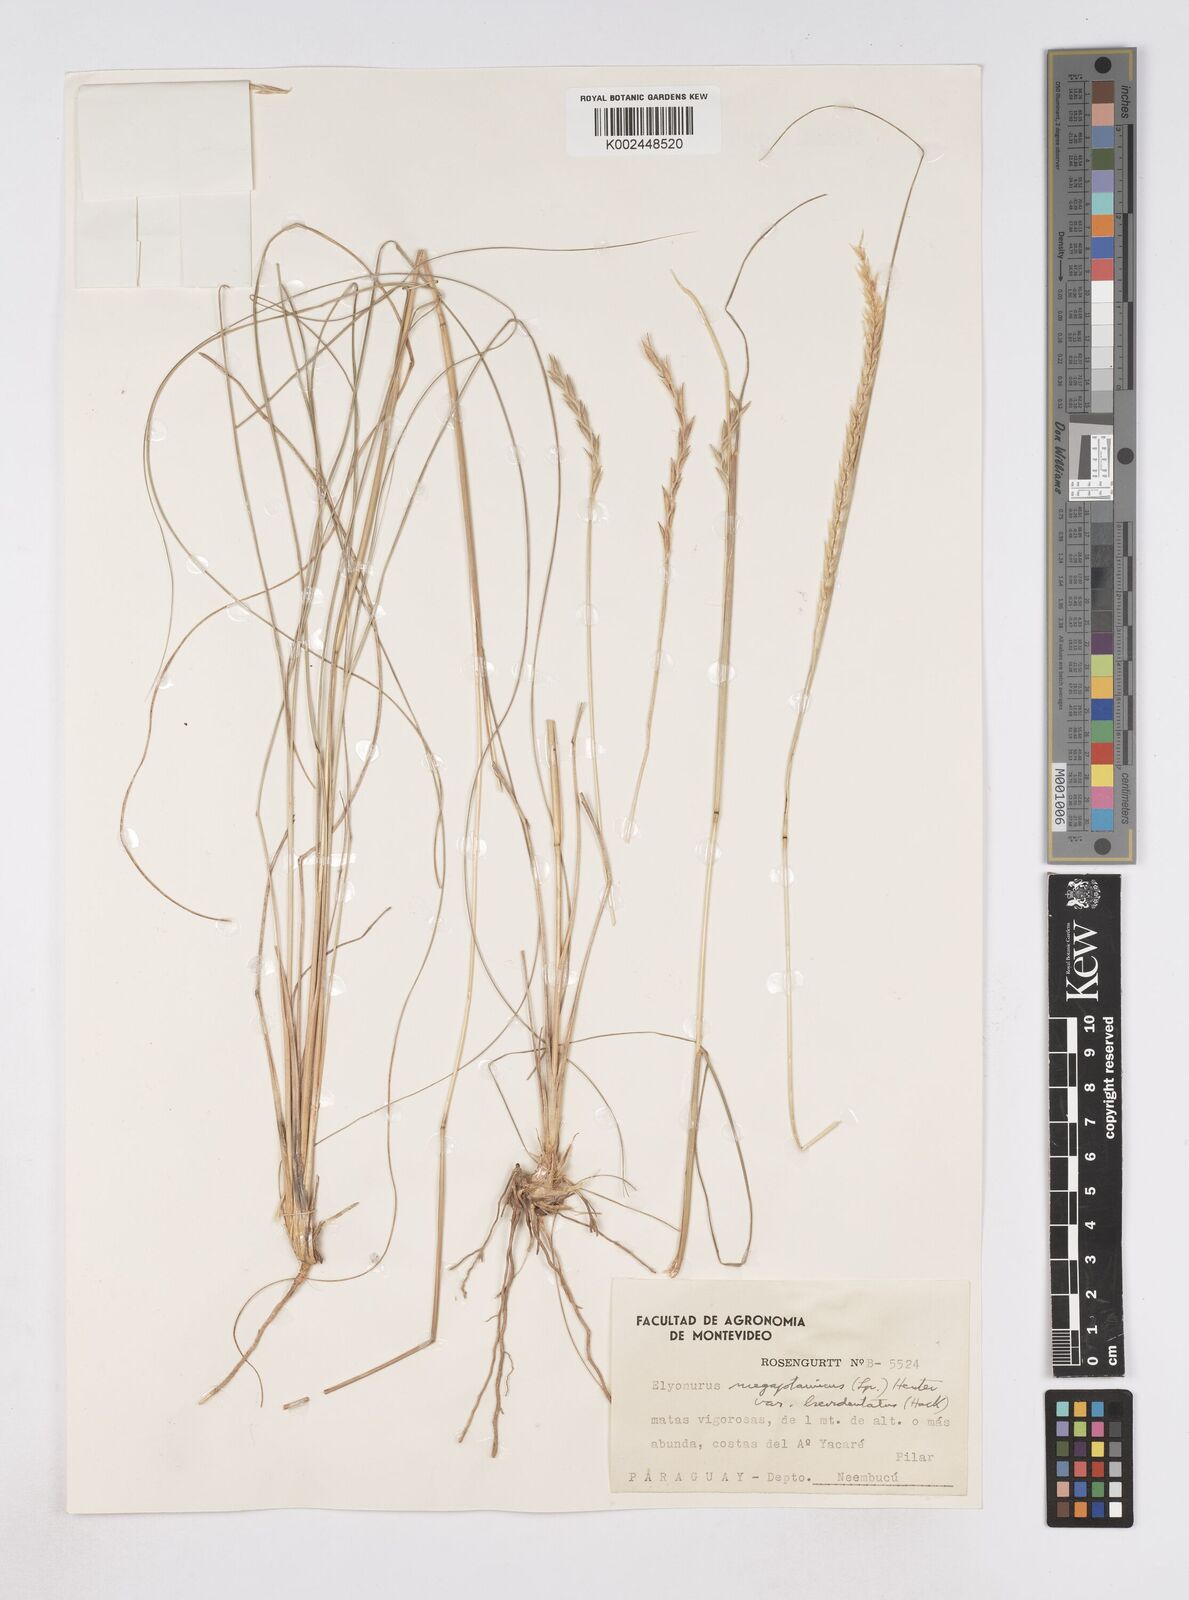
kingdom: Plantae
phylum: Tracheophyta
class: Liliopsida
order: Poales
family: Poaceae
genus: Elionurus
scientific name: Elionurus muticus
